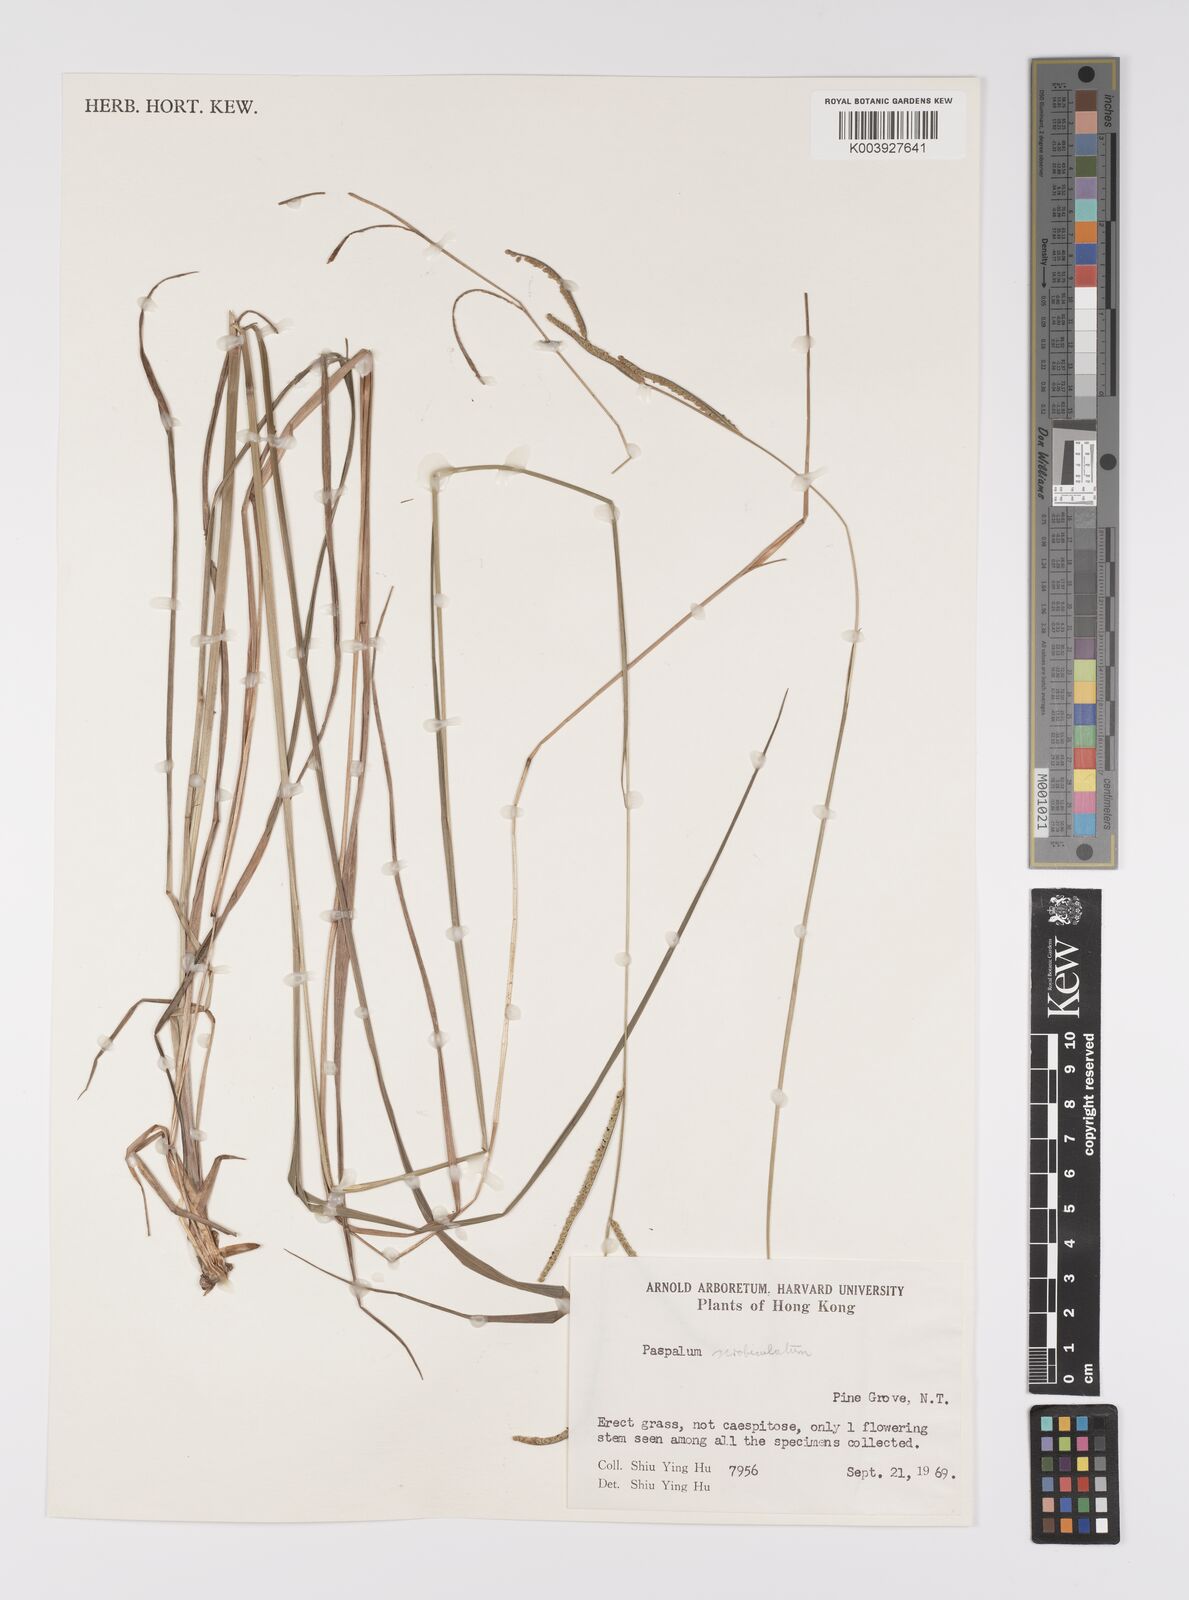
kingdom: Plantae
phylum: Tracheophyta
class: Liliopsida
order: Poales
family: Poaceae
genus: Paspalum
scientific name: Paspalum orbiculare
